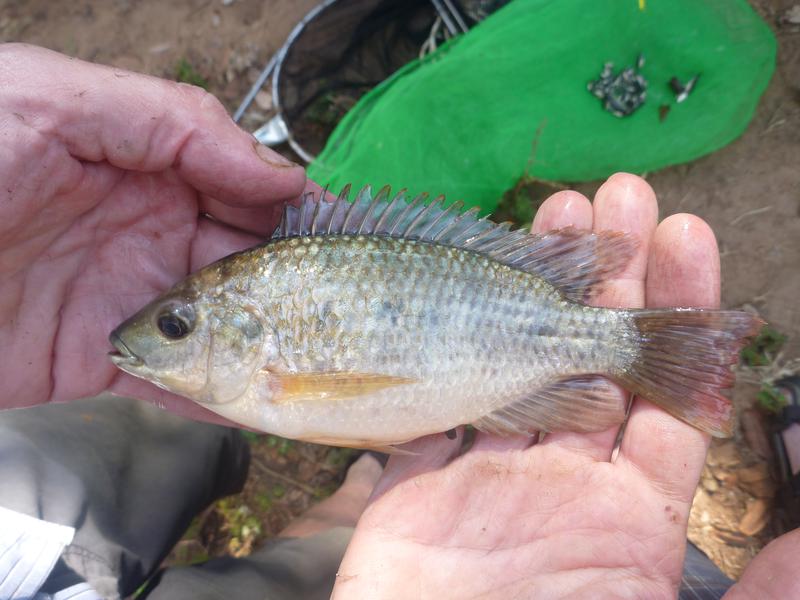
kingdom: Animalia
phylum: Chordata
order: Perciformes
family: Cichlidae
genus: Oreochromis
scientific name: Oreochromis shiranus
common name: Chilwa tilapia
